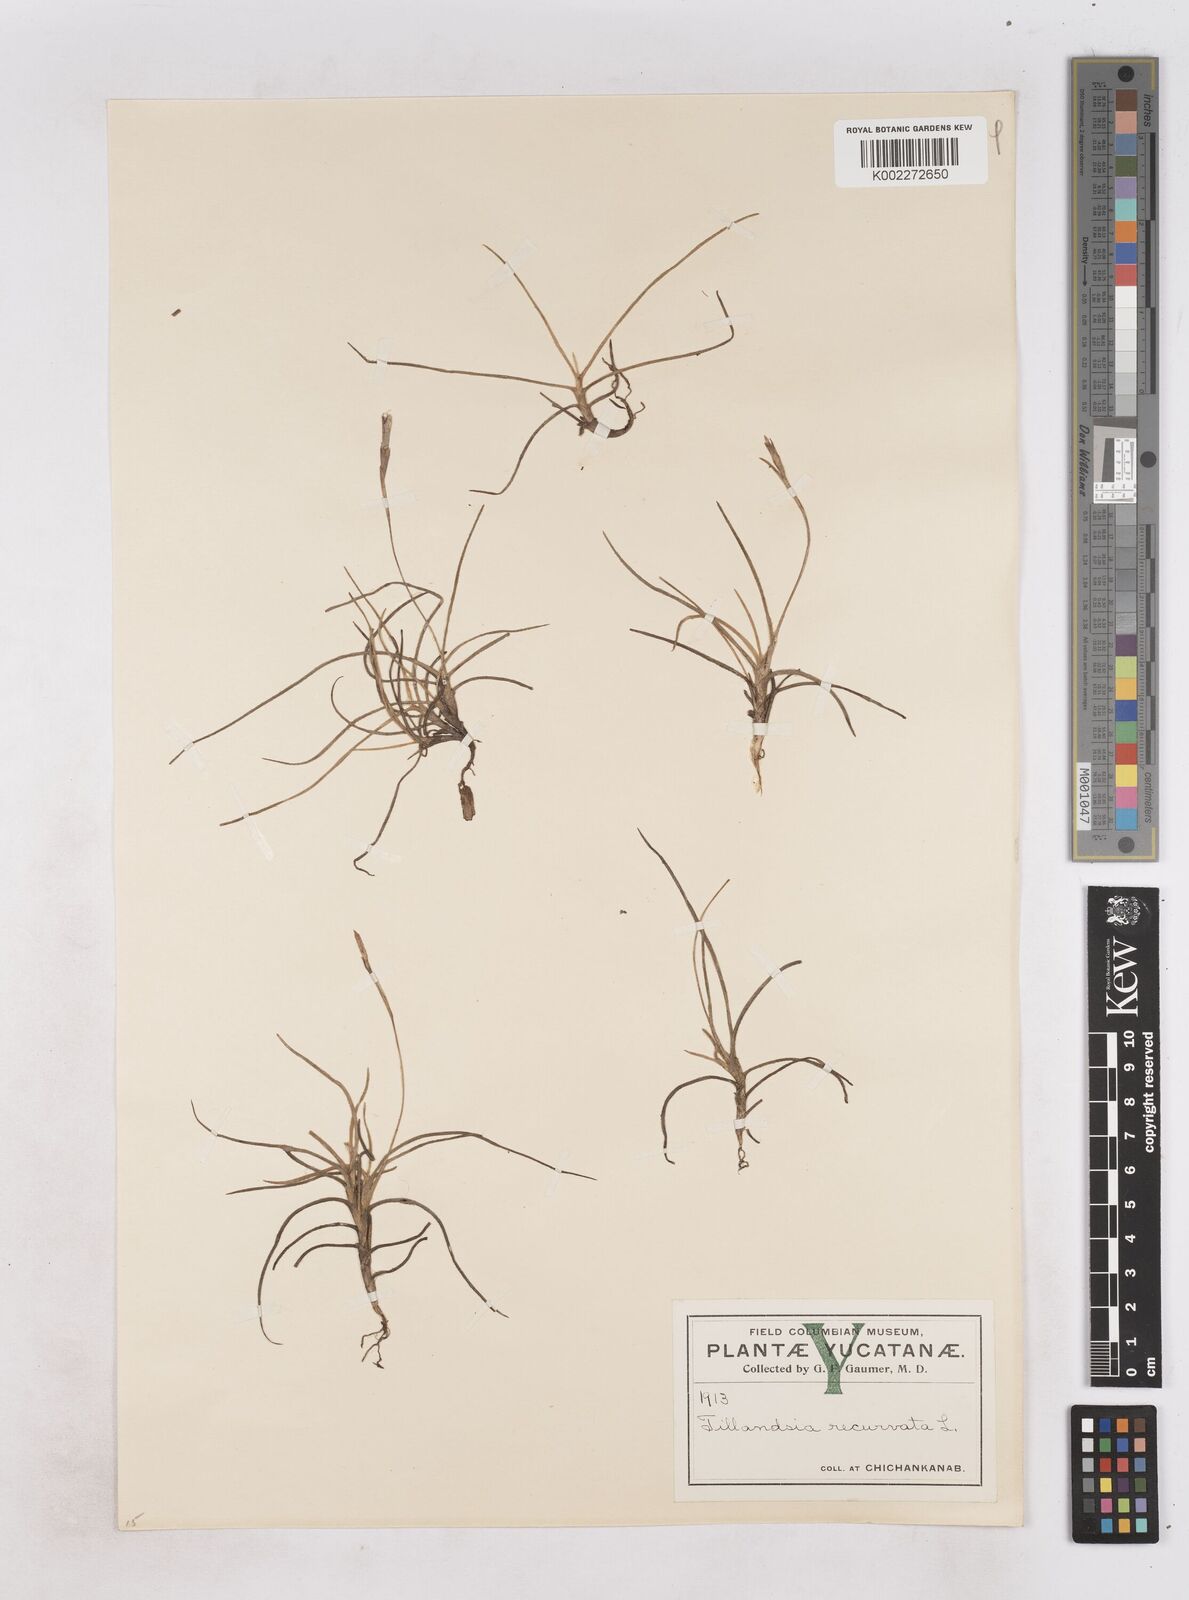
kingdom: Plantae
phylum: Tracheophyta
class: Liliopsida
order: Poales
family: Bromeliaceae
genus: Tillandsia
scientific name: Tillandsia recurvata
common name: Small ballmoss
